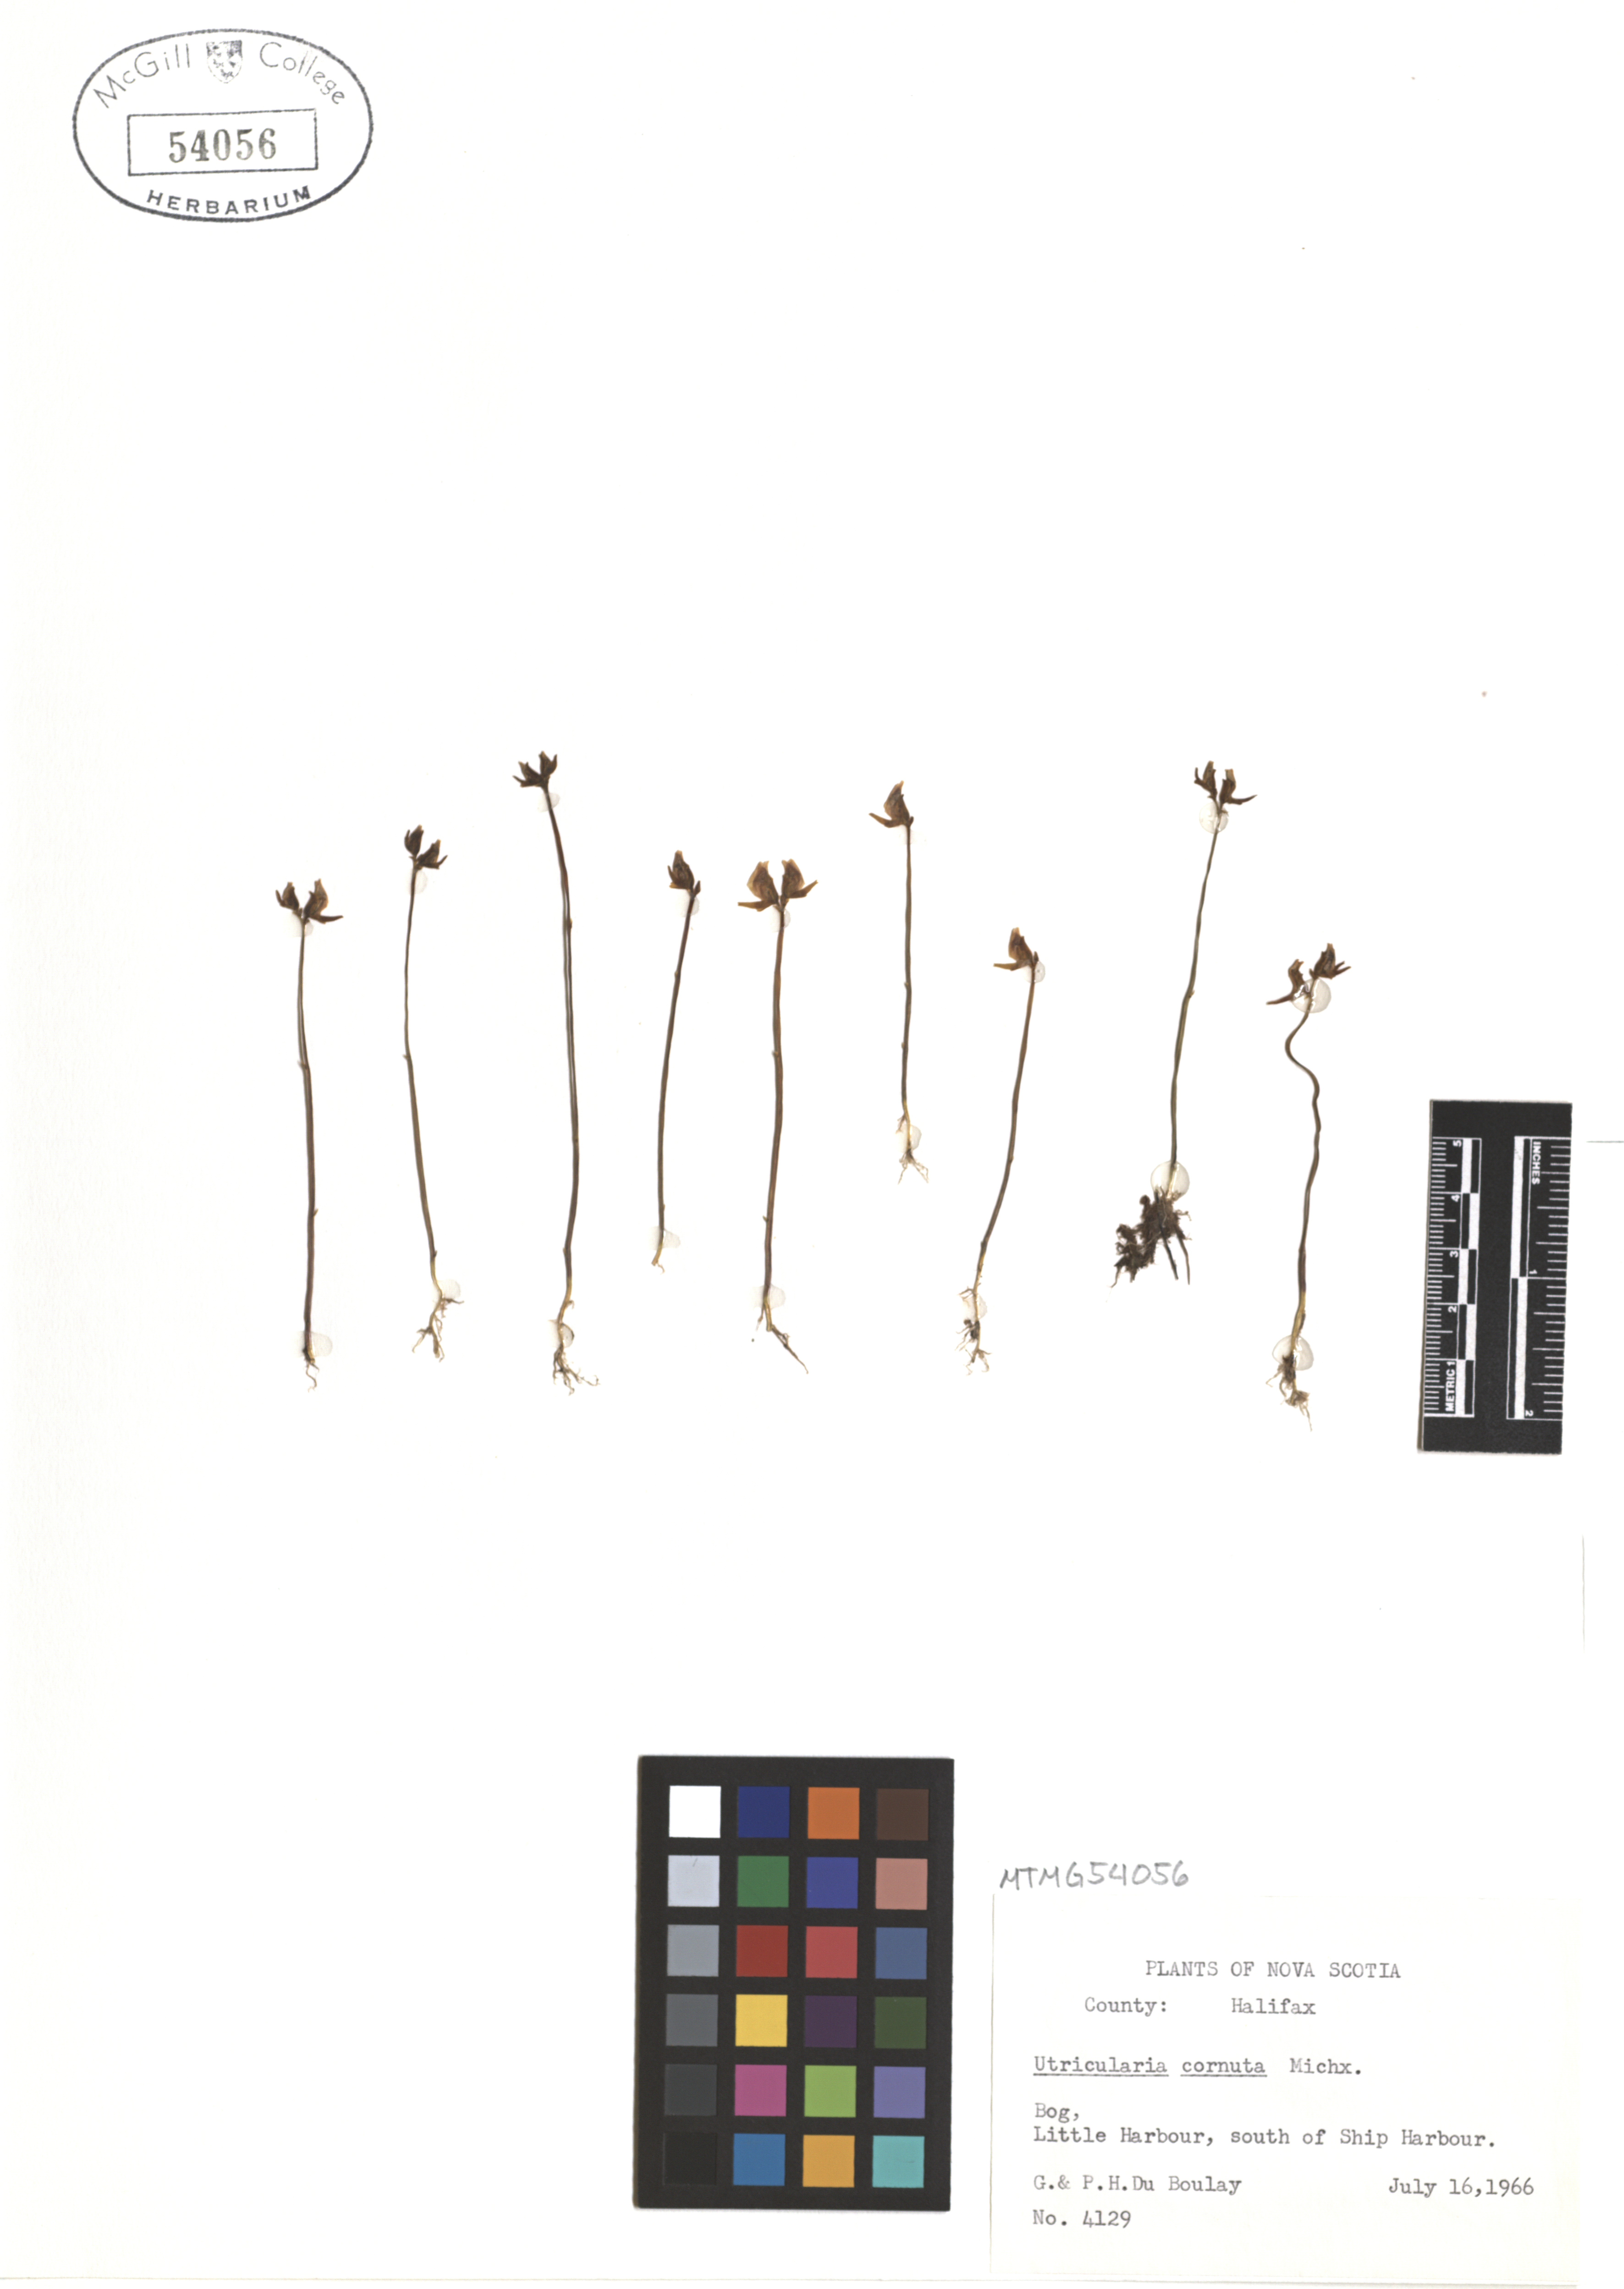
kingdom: Plantae
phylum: Tracheophyta
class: Magnoliopsida
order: Lamiales
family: Lentibulariaceae
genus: Utricularia
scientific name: Utricularia cornuta
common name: Horned bladderwort
